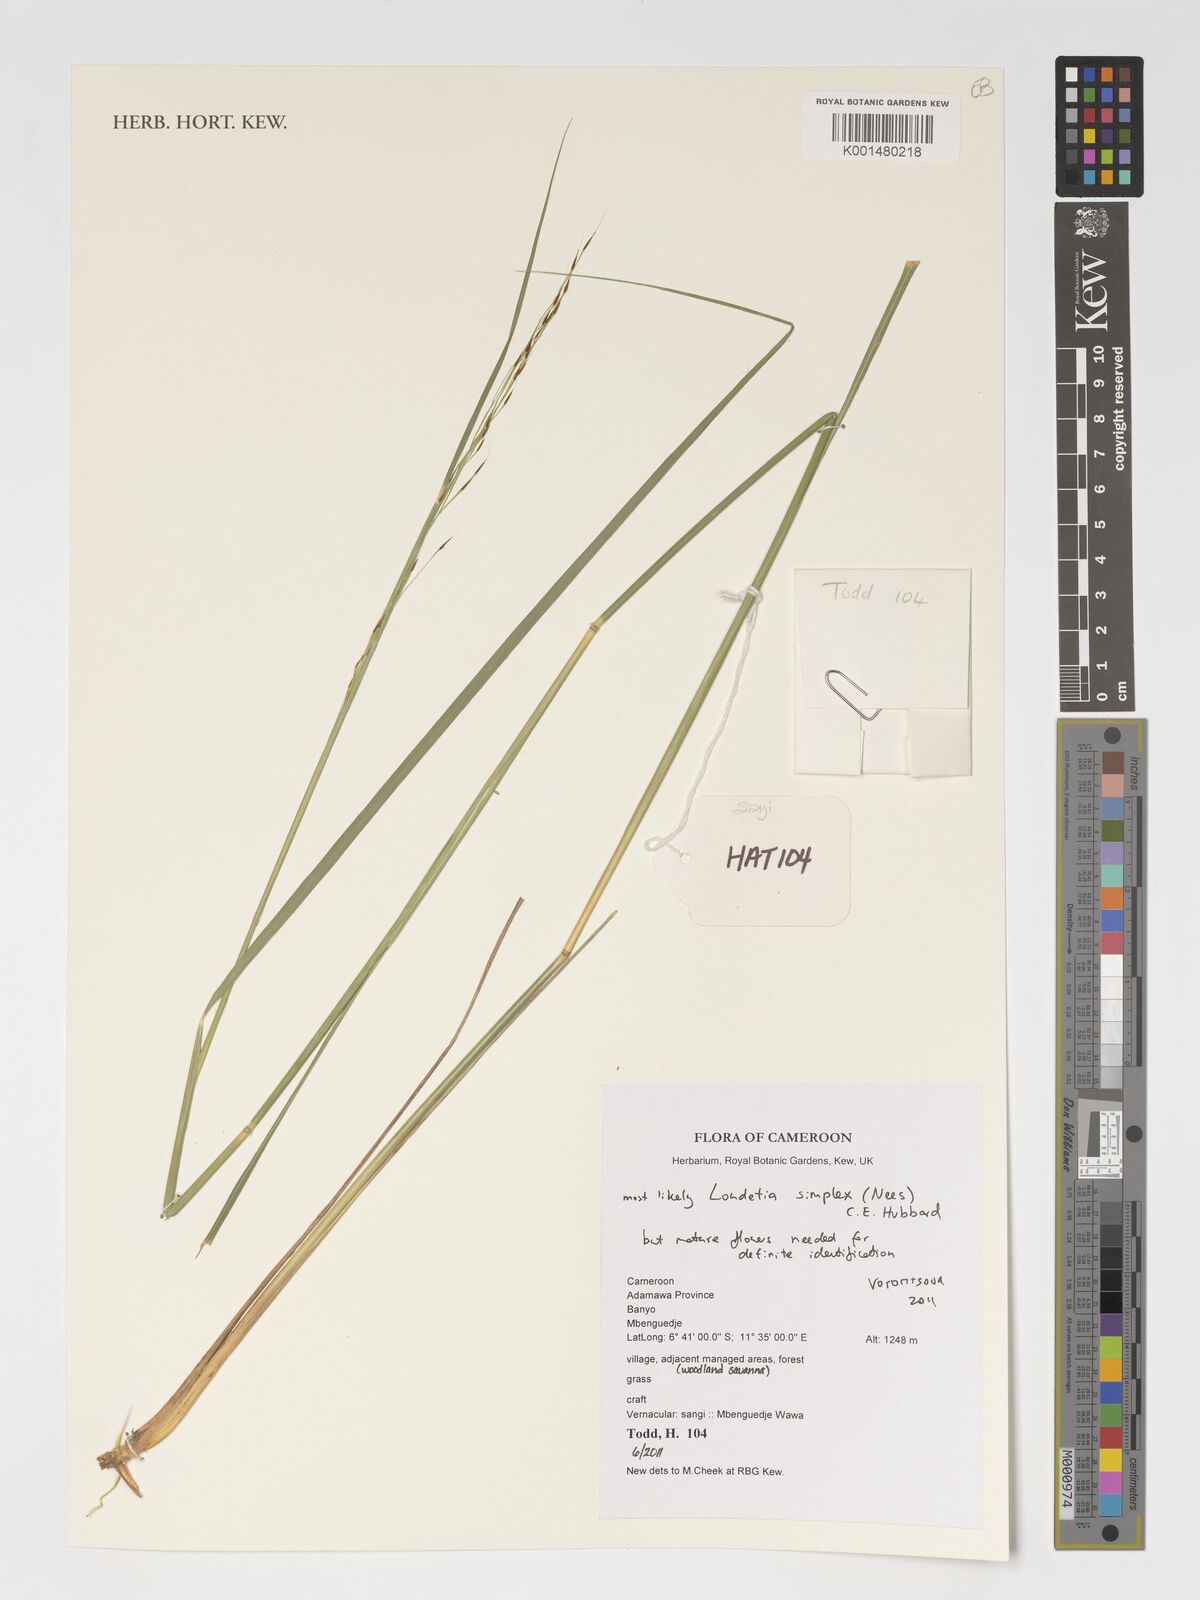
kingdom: Plantae
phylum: Tracheophyta
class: Liliopsida
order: Poales
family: Poaceae
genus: Loudetia
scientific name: Loudetia simplex
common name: Common russet grass
